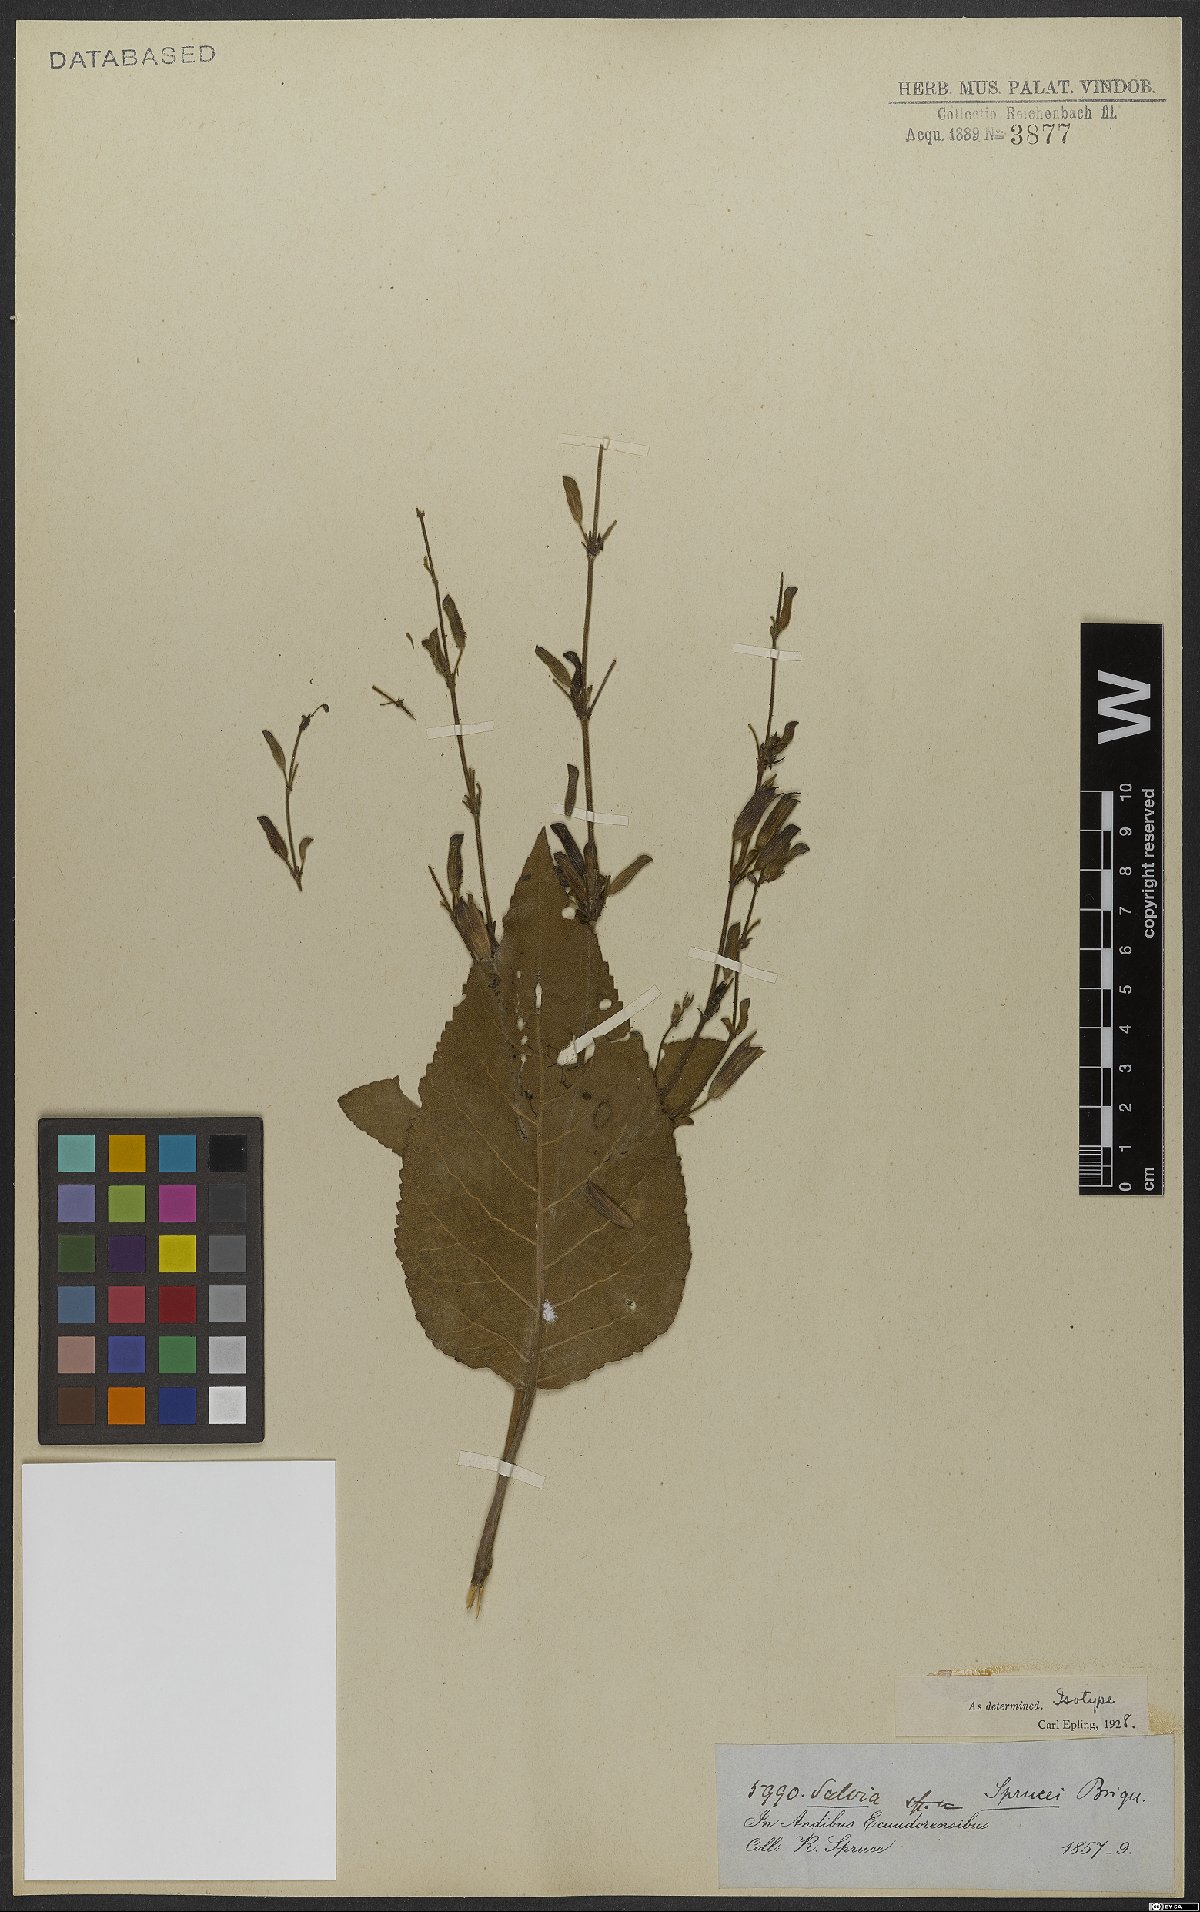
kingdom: Plantae
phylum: Tracheophyta
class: Magnoliopsida
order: Lamiales
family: Lamiaceae
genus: Salvia
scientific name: Salvia sprucei
